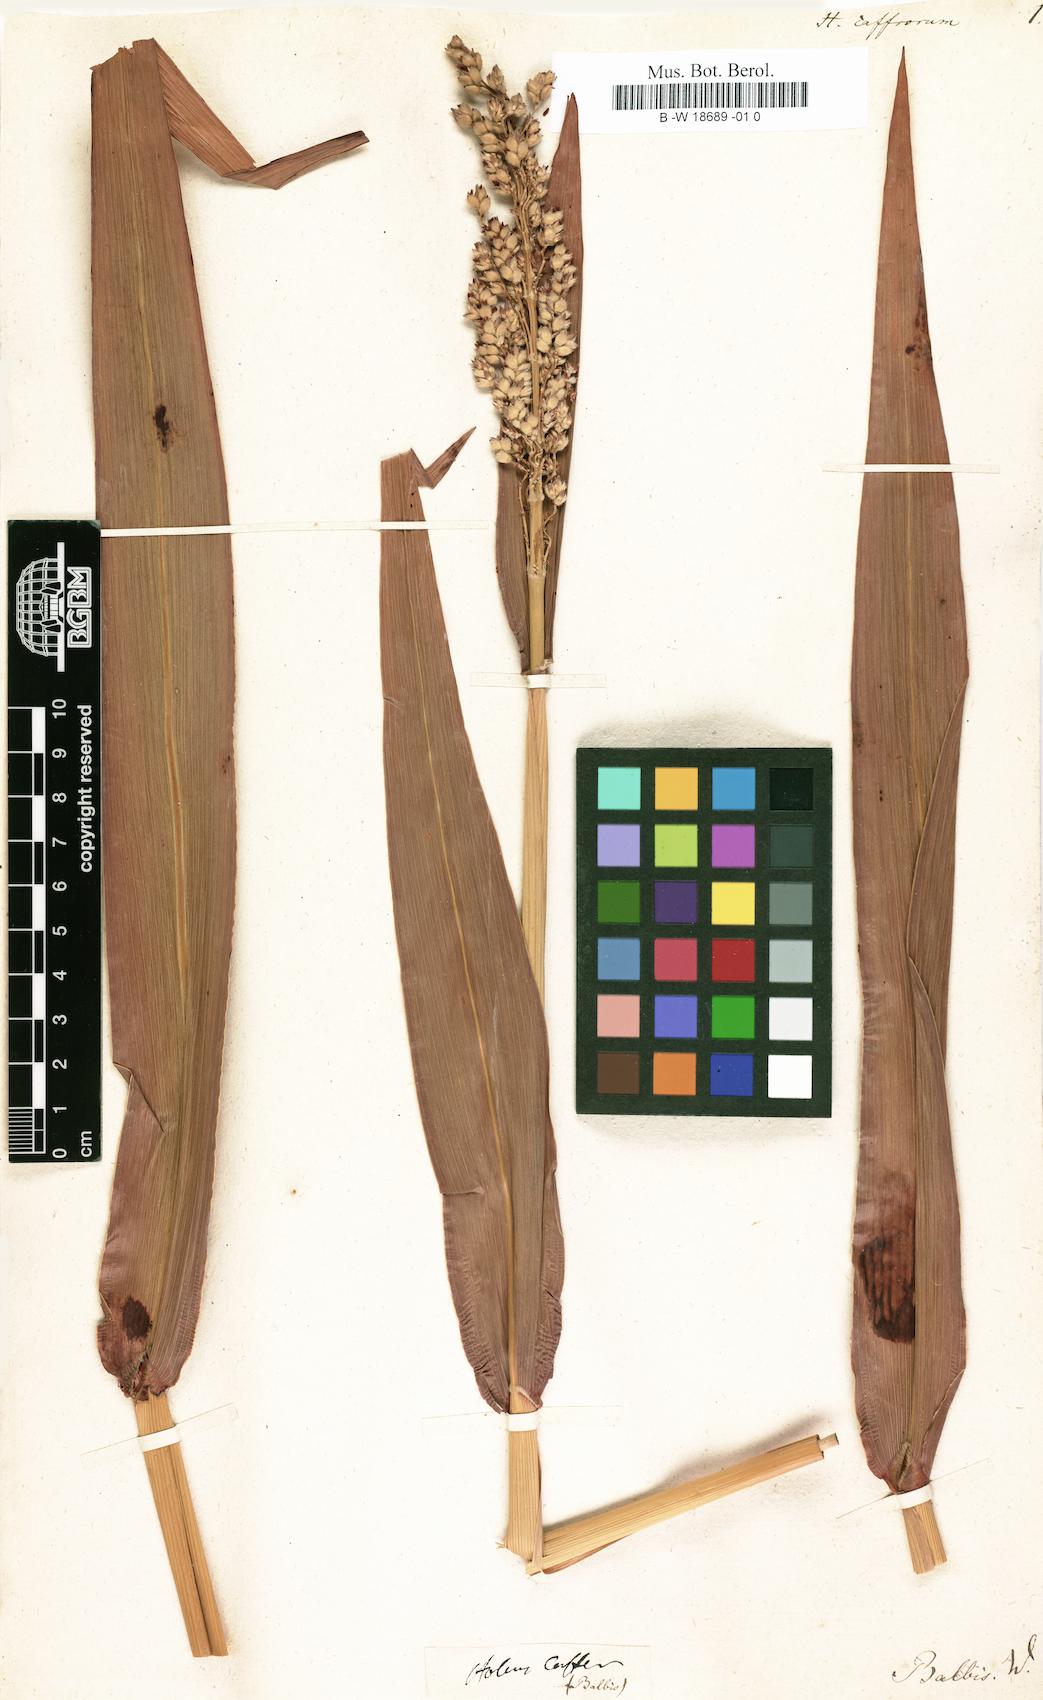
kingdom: Plantae
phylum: Tracheophyta
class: Liliopsida
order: Poales
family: Poaceae
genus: Sorghum
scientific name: Sorghum bicolor
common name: Sorghum
